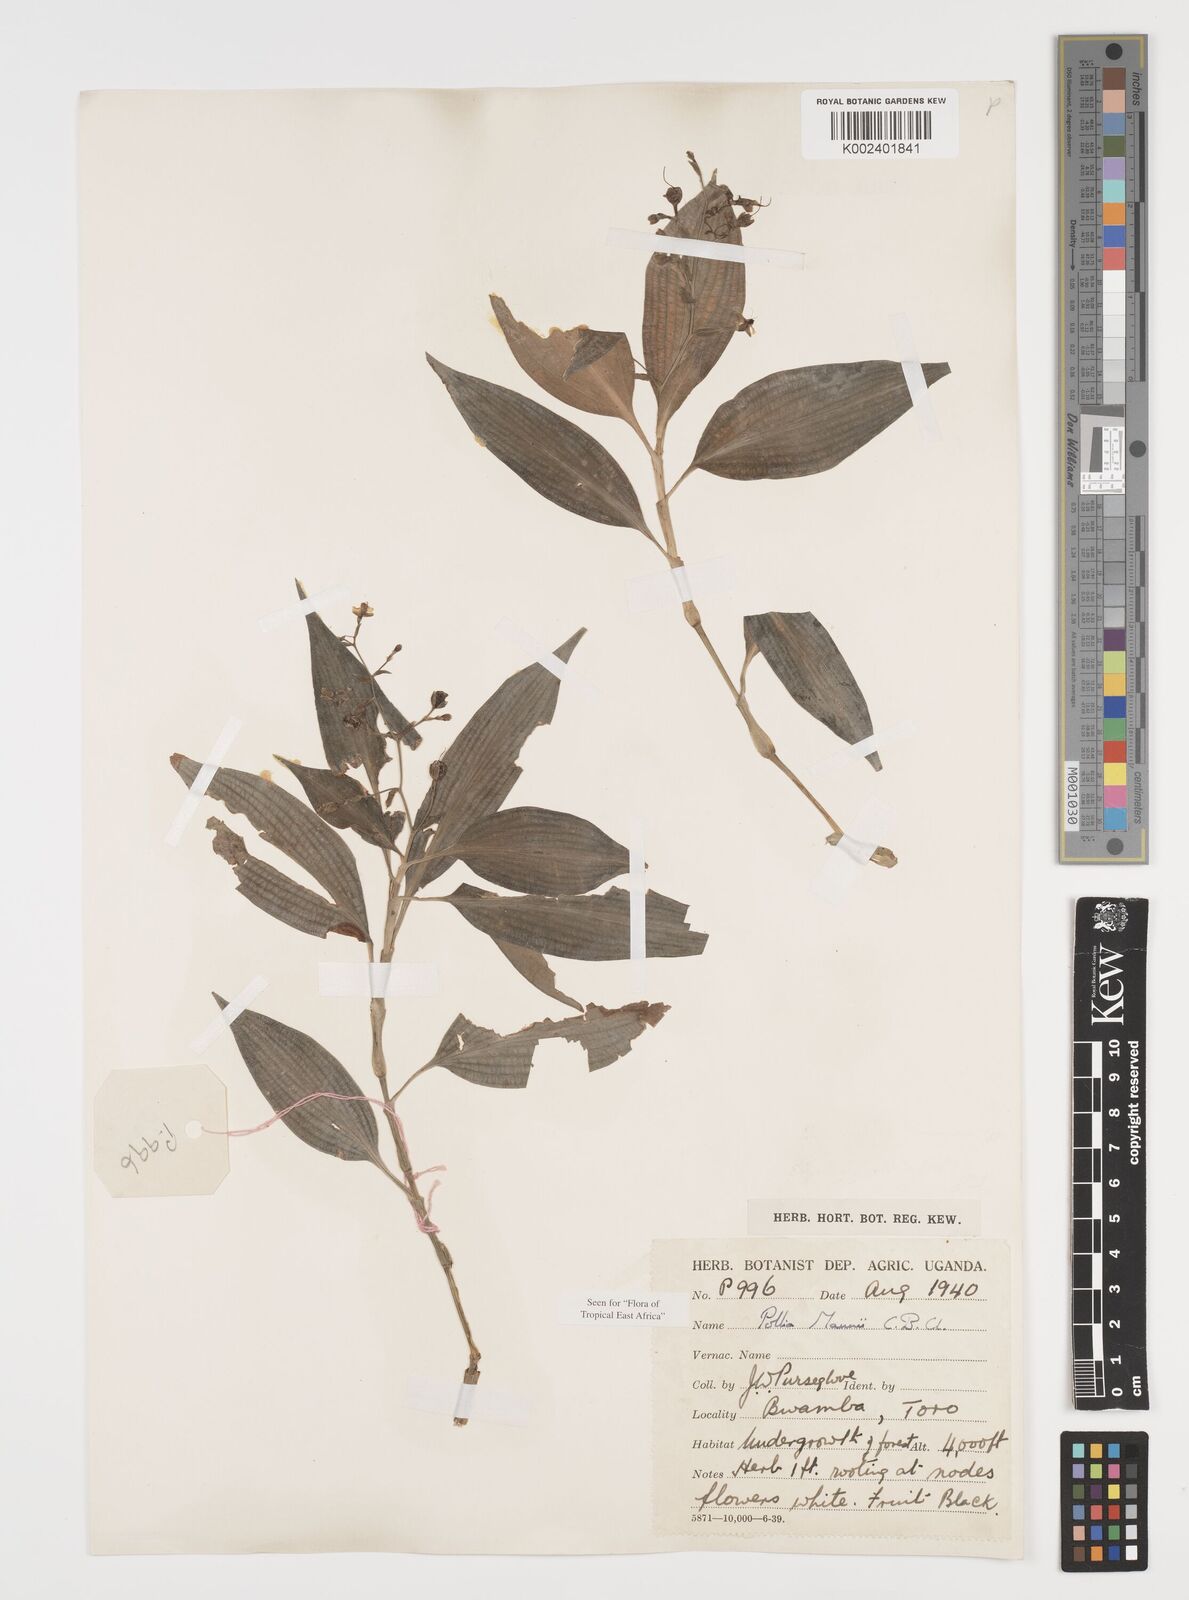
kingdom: Plantae
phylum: Tracheophyta
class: Liliopsida
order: Commelinales
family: Commelinaceae
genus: Pollia
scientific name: Pollia mannii
